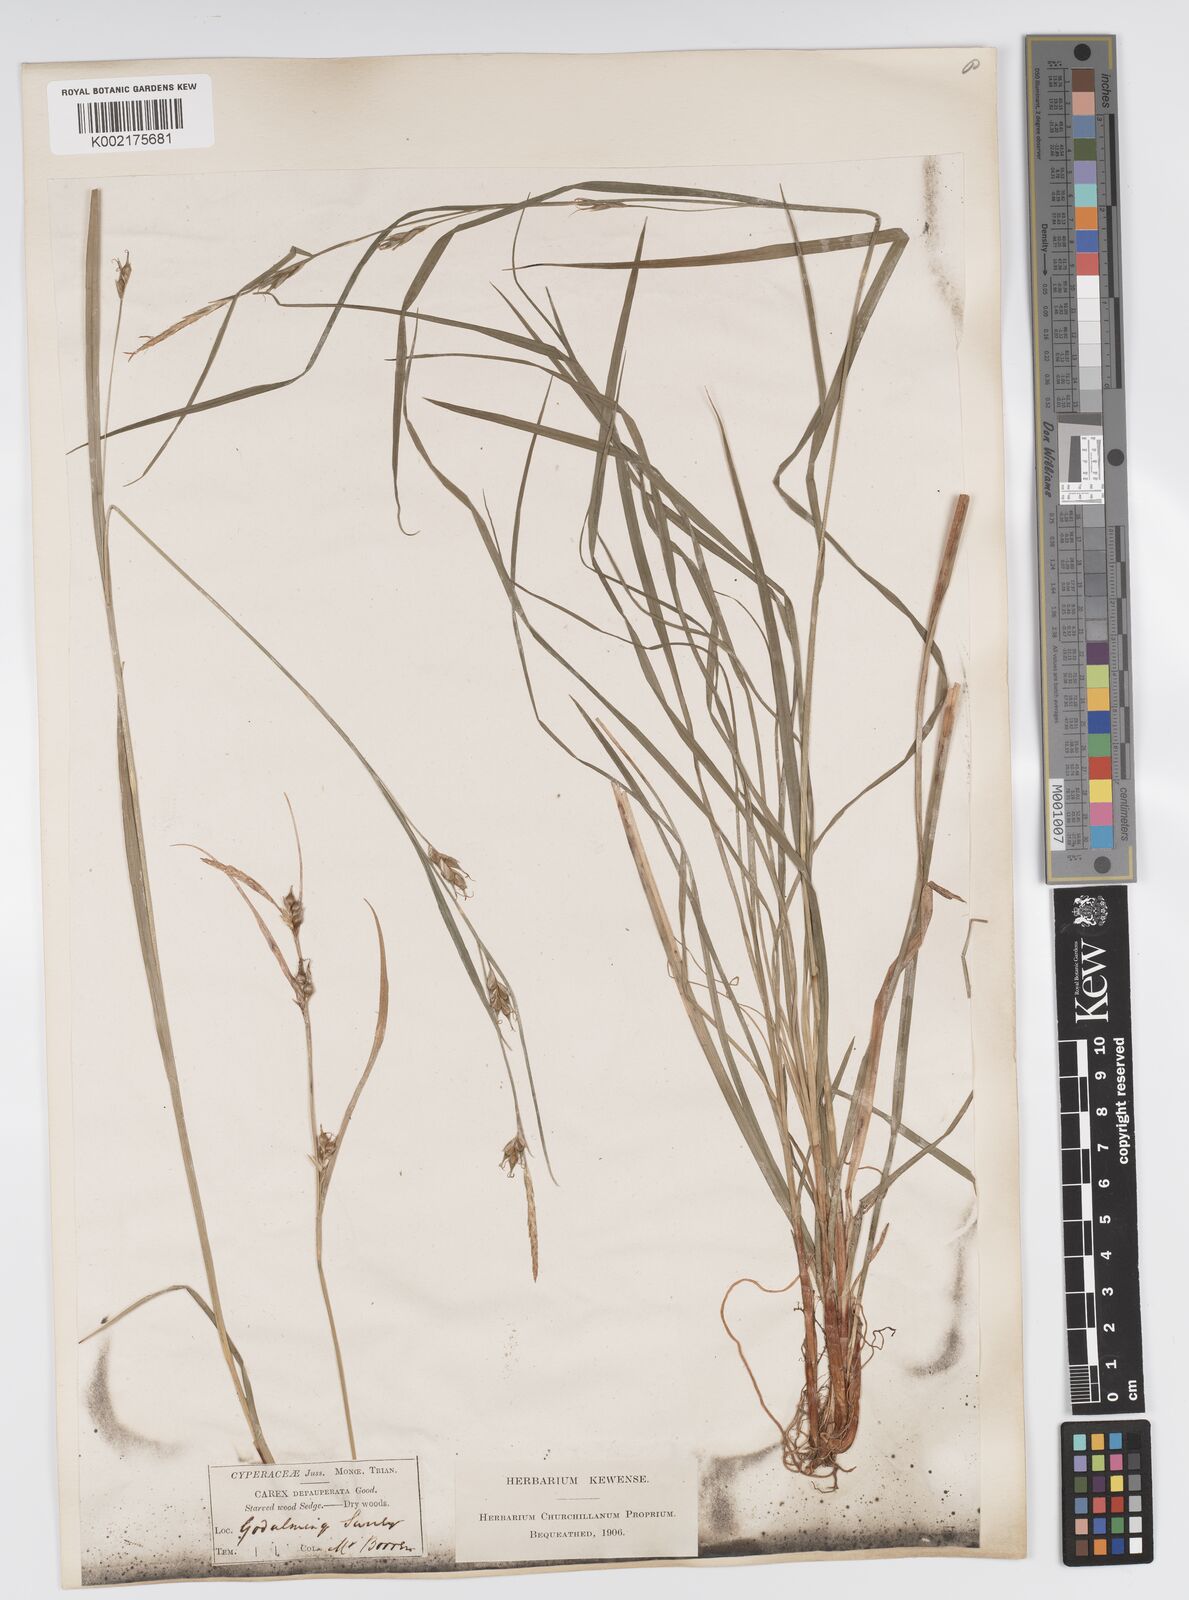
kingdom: Plantae
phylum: Tracheophyta
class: Liliopsida
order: Poales
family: Cyperaceae
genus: Carex
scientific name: Carex vaginata
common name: Sheathed sedge
